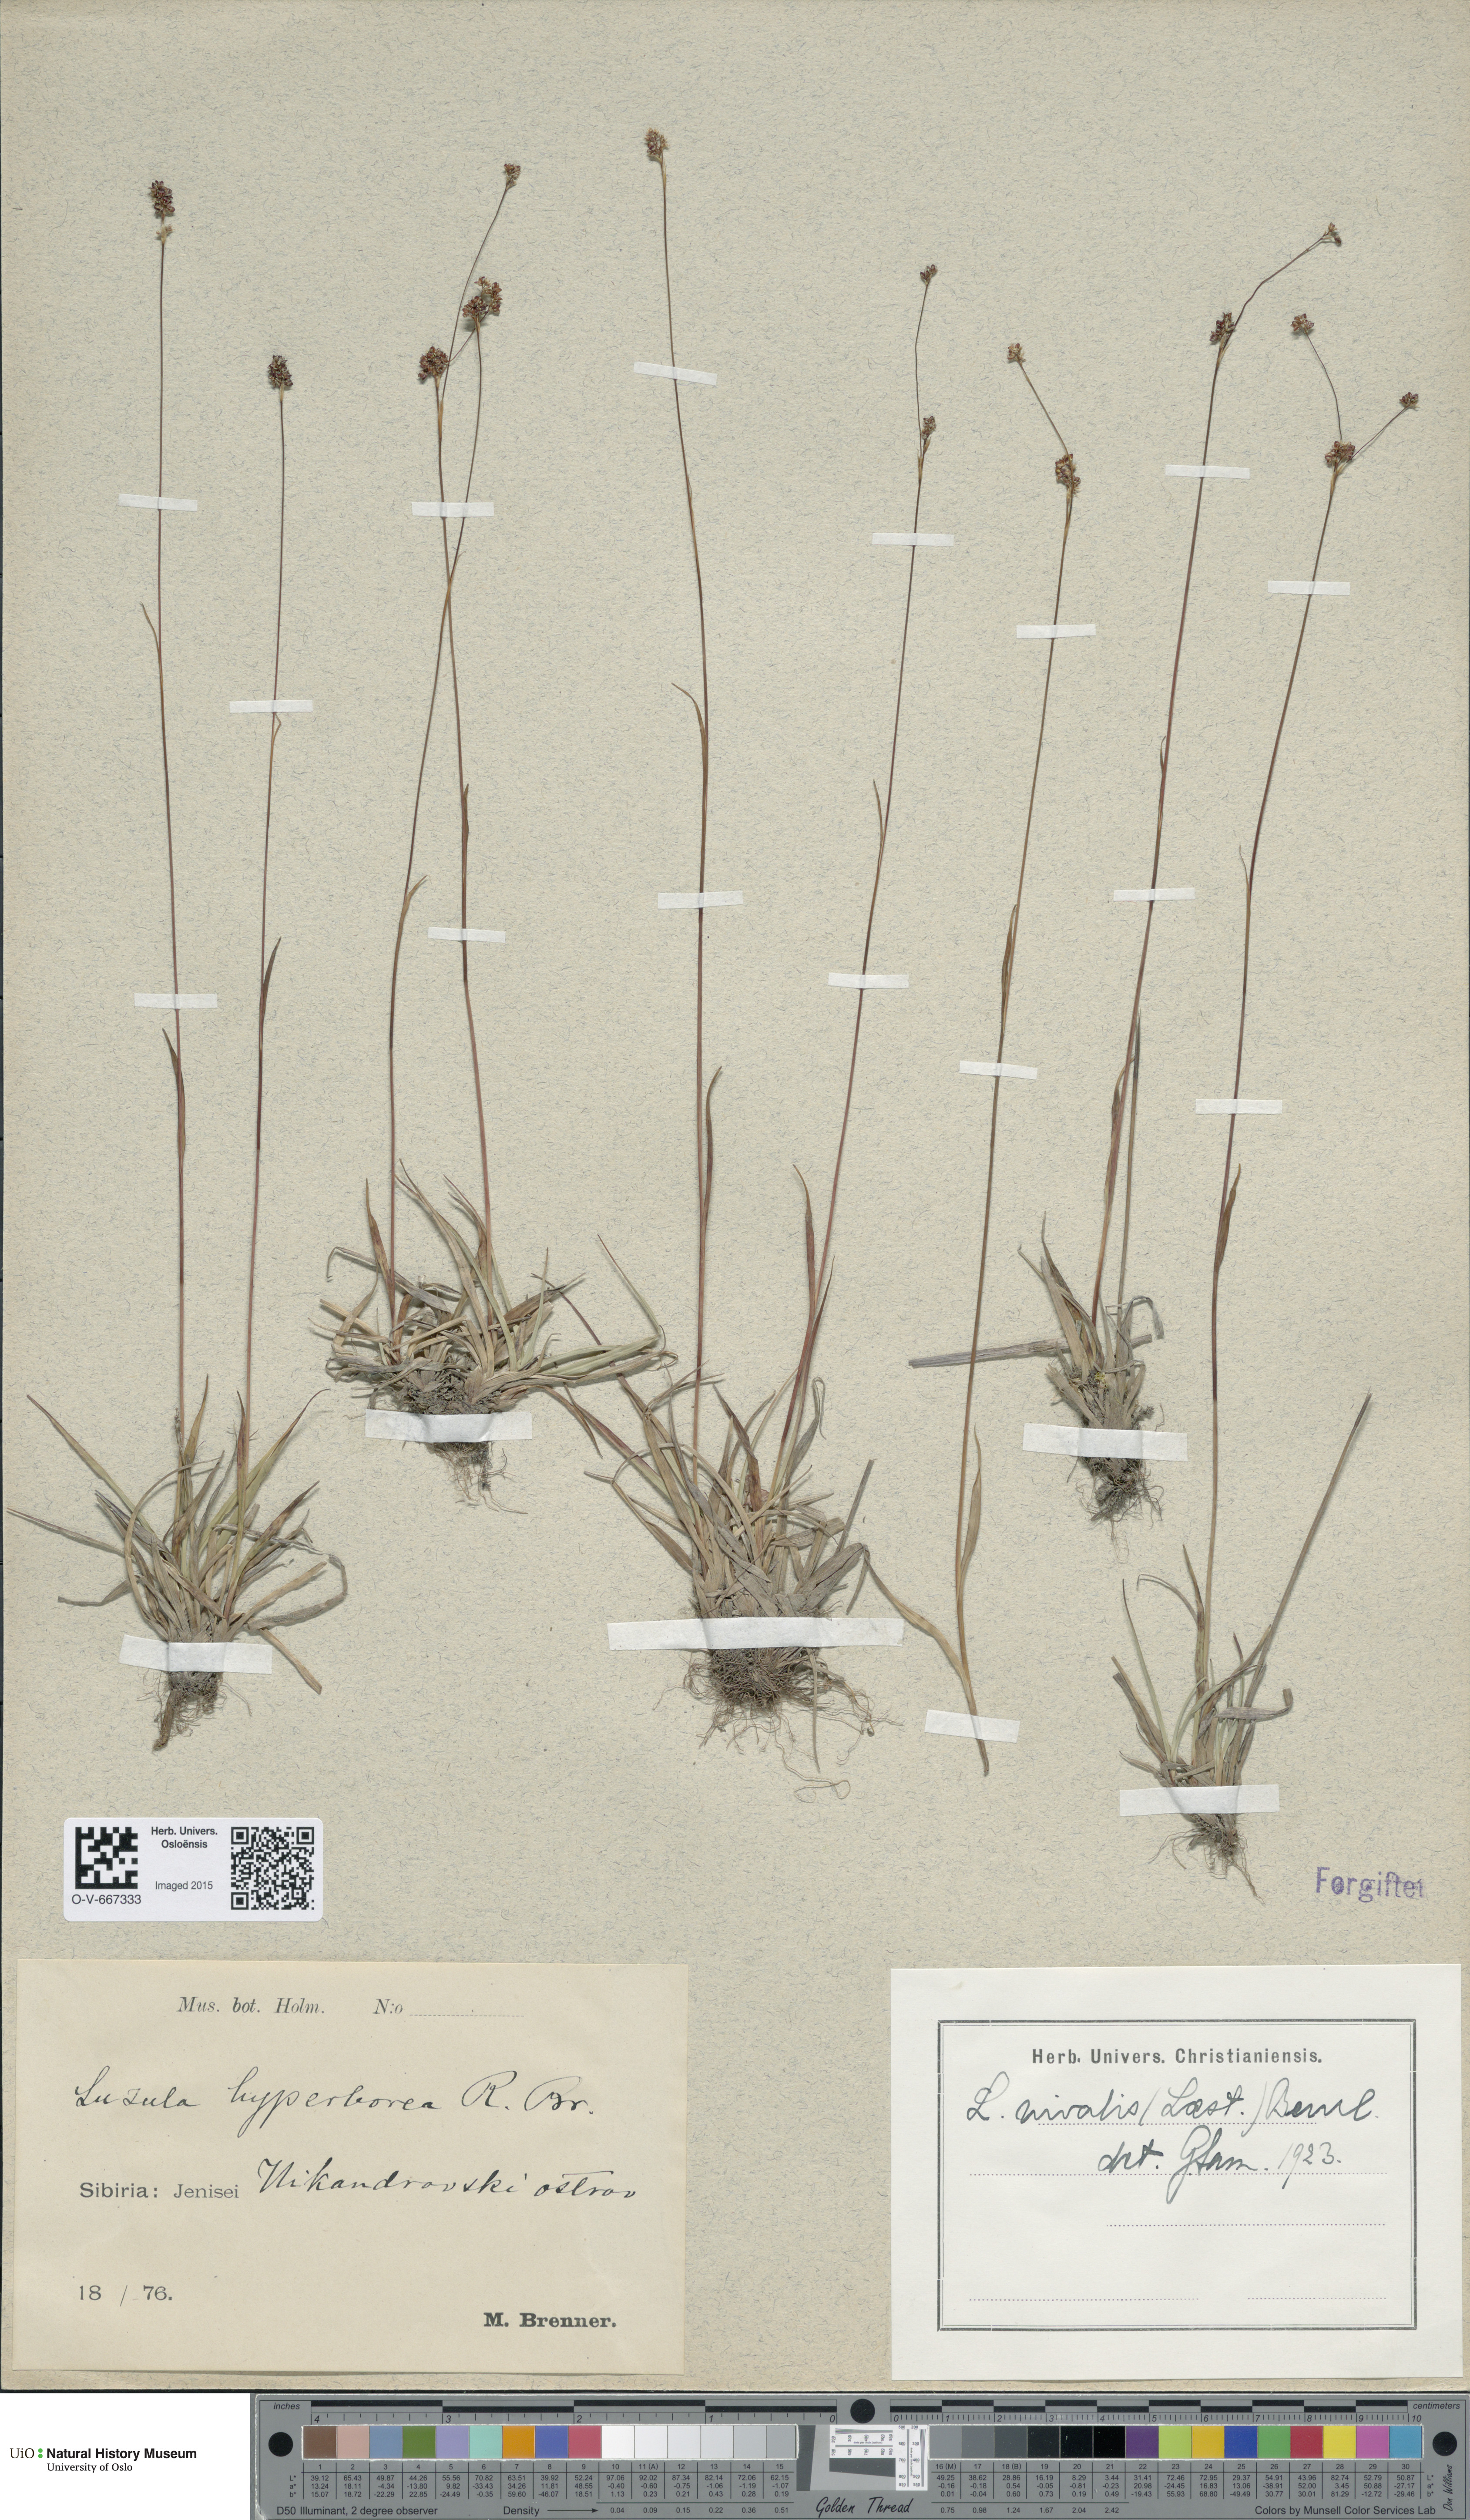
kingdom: Plantae
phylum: Tracheophyta
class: Liliopsida
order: Poales
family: Juncaceae
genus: Luzula
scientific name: Luzula nivalis
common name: Arctic woodrush
